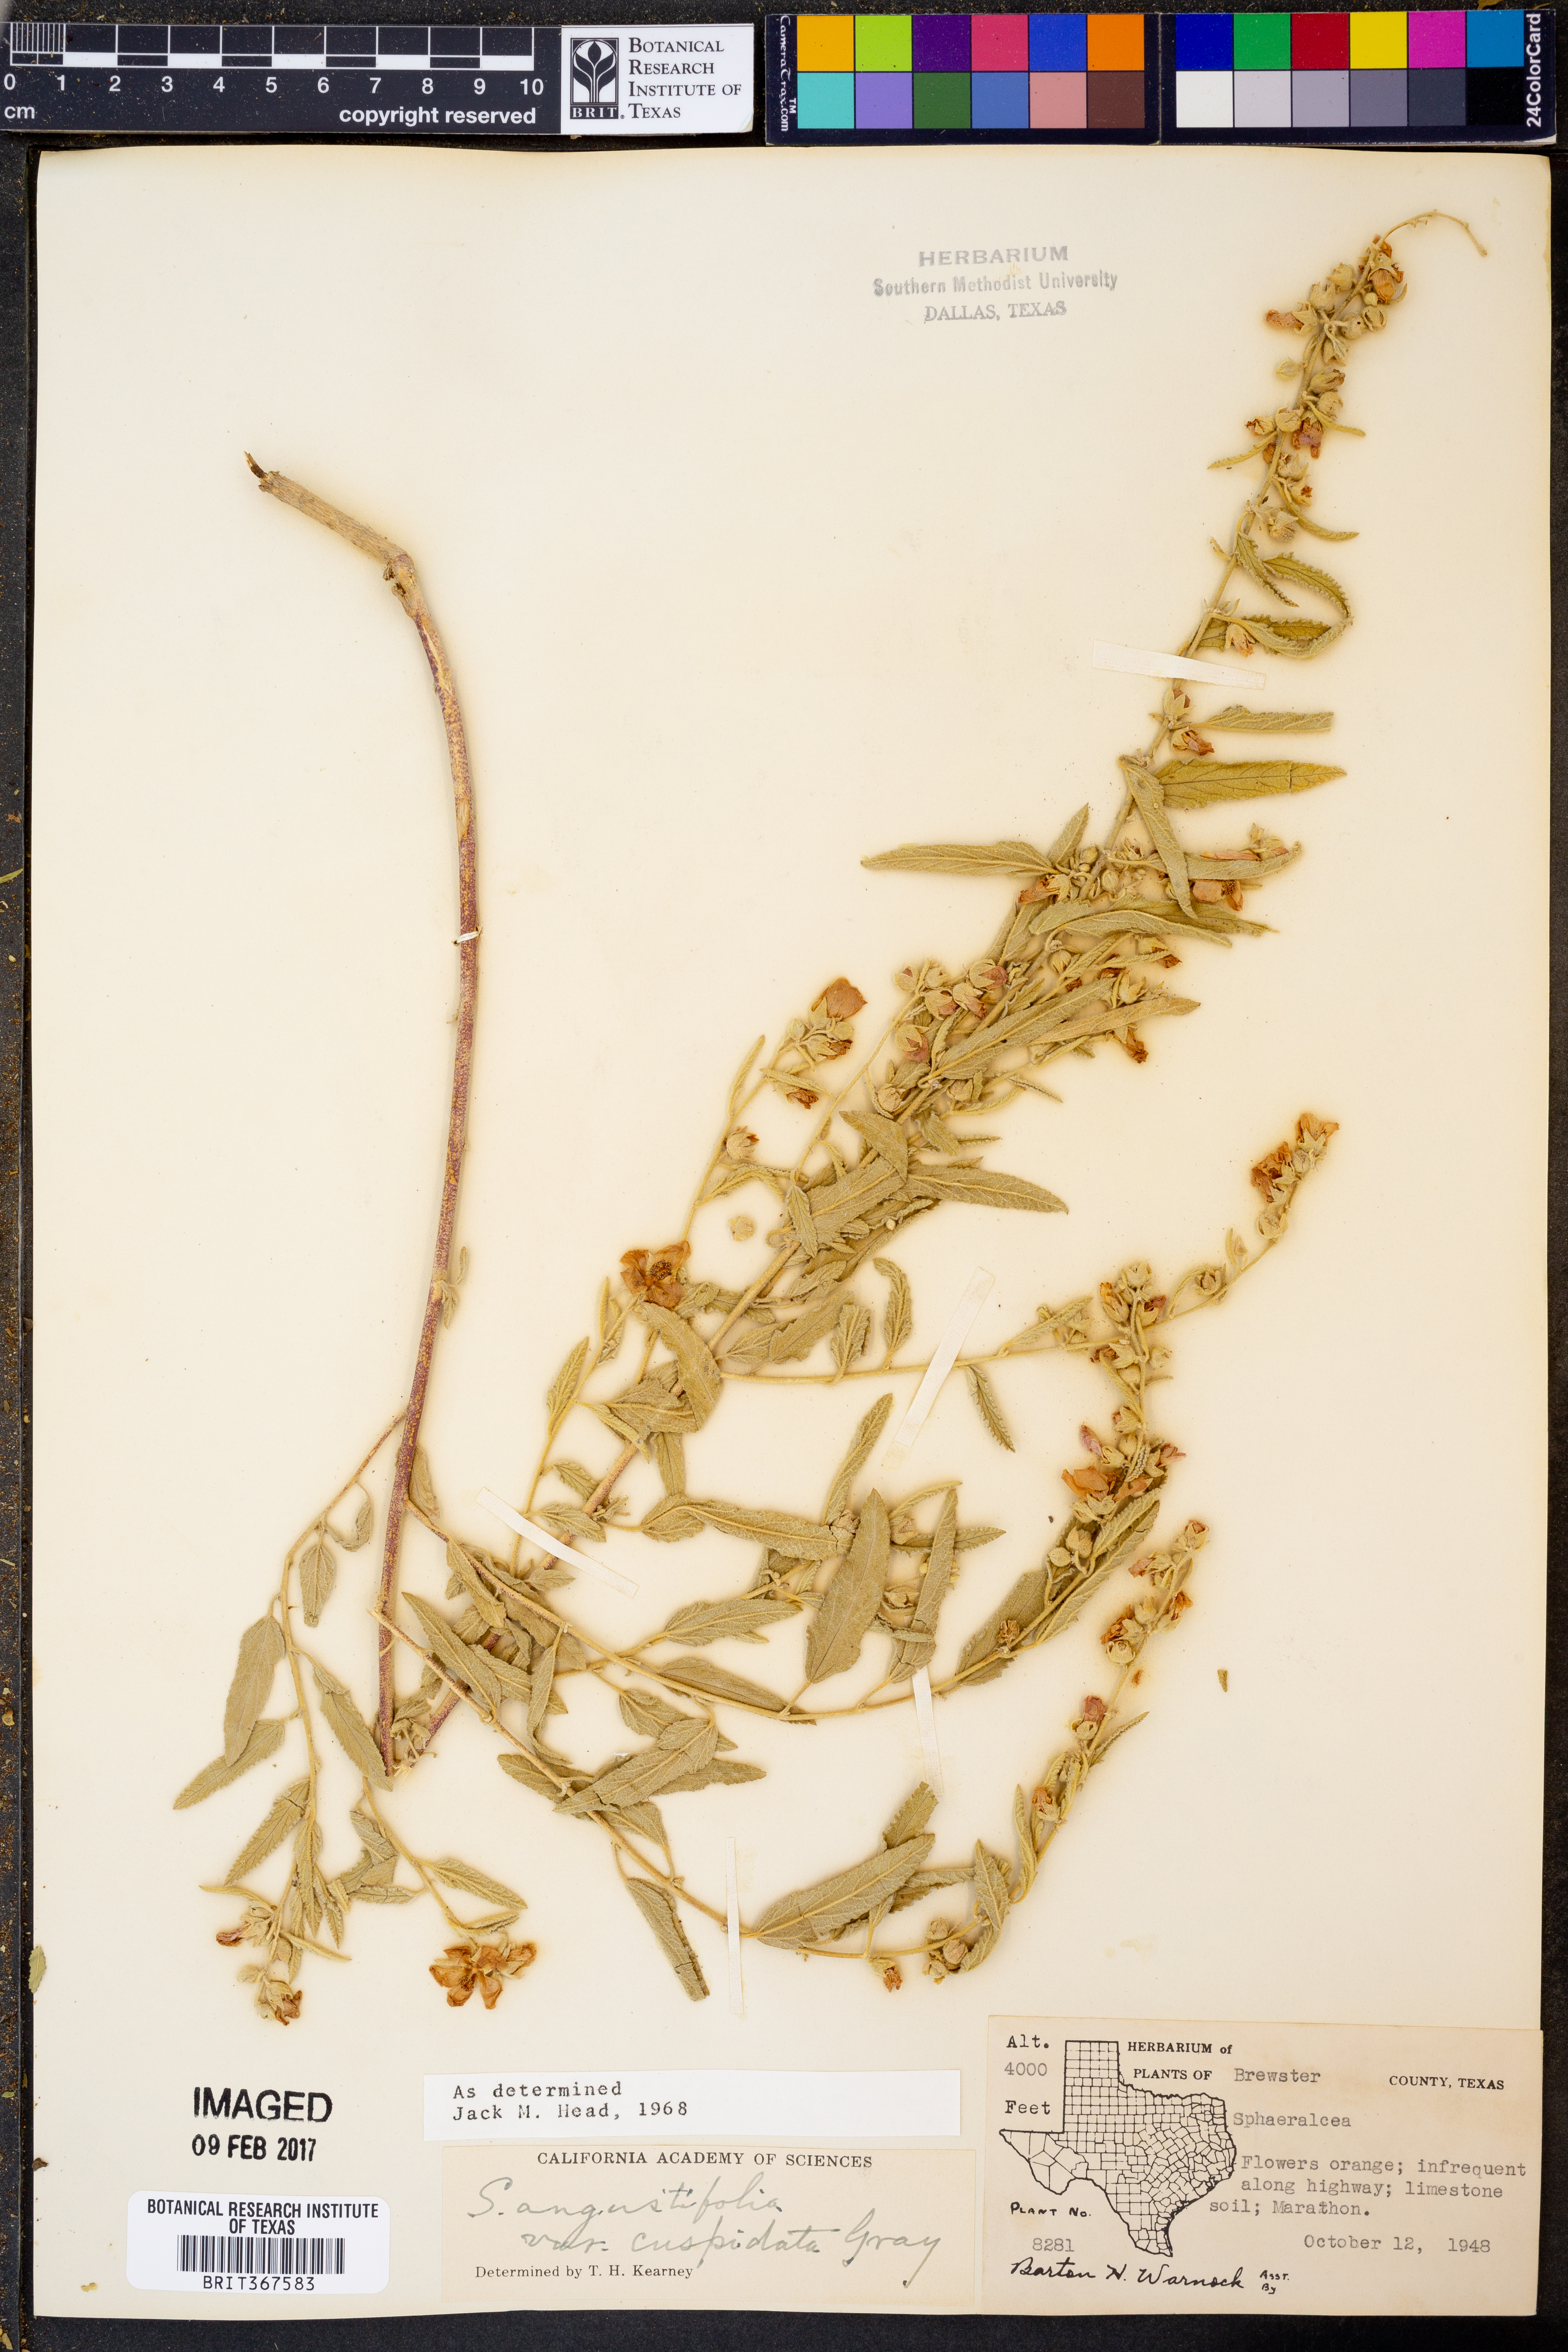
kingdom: Plantae
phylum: Tracheophyta
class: Magnoliopsida
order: Malvales
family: Malvaceae
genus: Sphaeralcea
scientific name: Sphaeralcea angustifolia
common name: Copper globe-mallow
